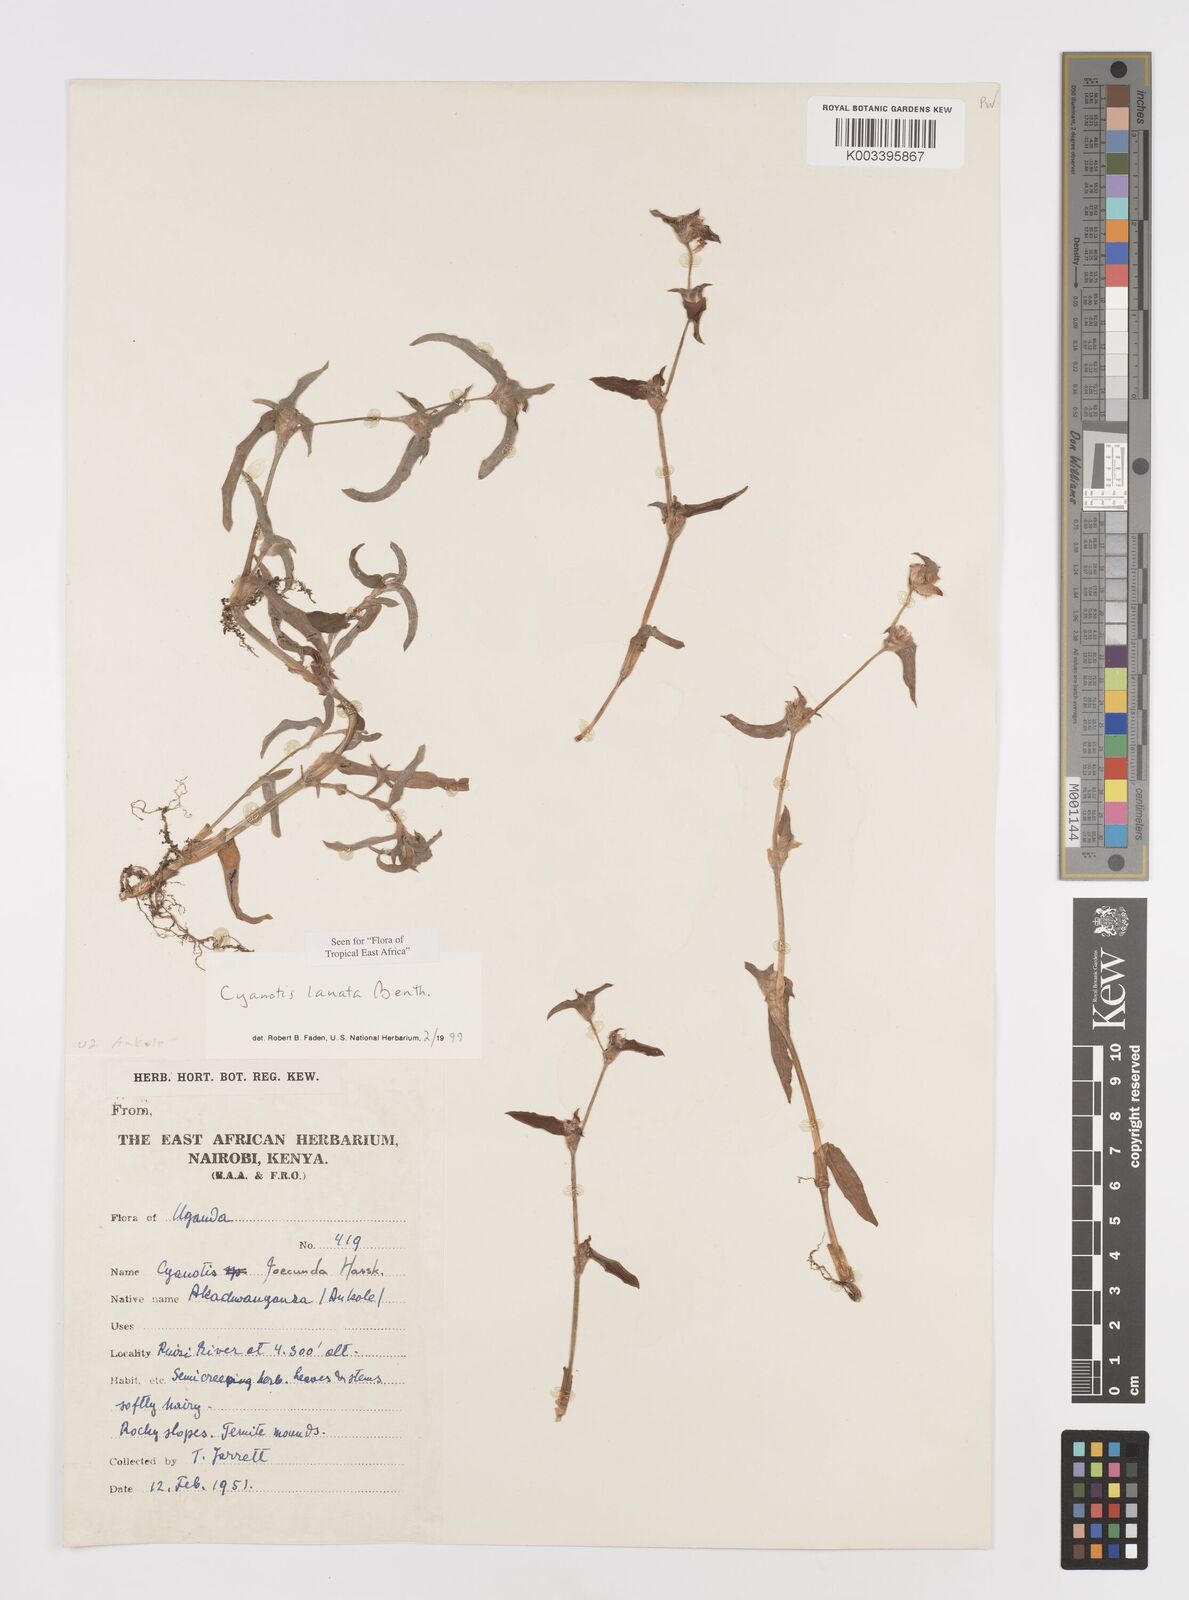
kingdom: Plantae
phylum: Tracheophyta
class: Liliopsida
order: Commelinales
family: Commelinaceae
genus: Cyanotis
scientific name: Cyanotis lanata
